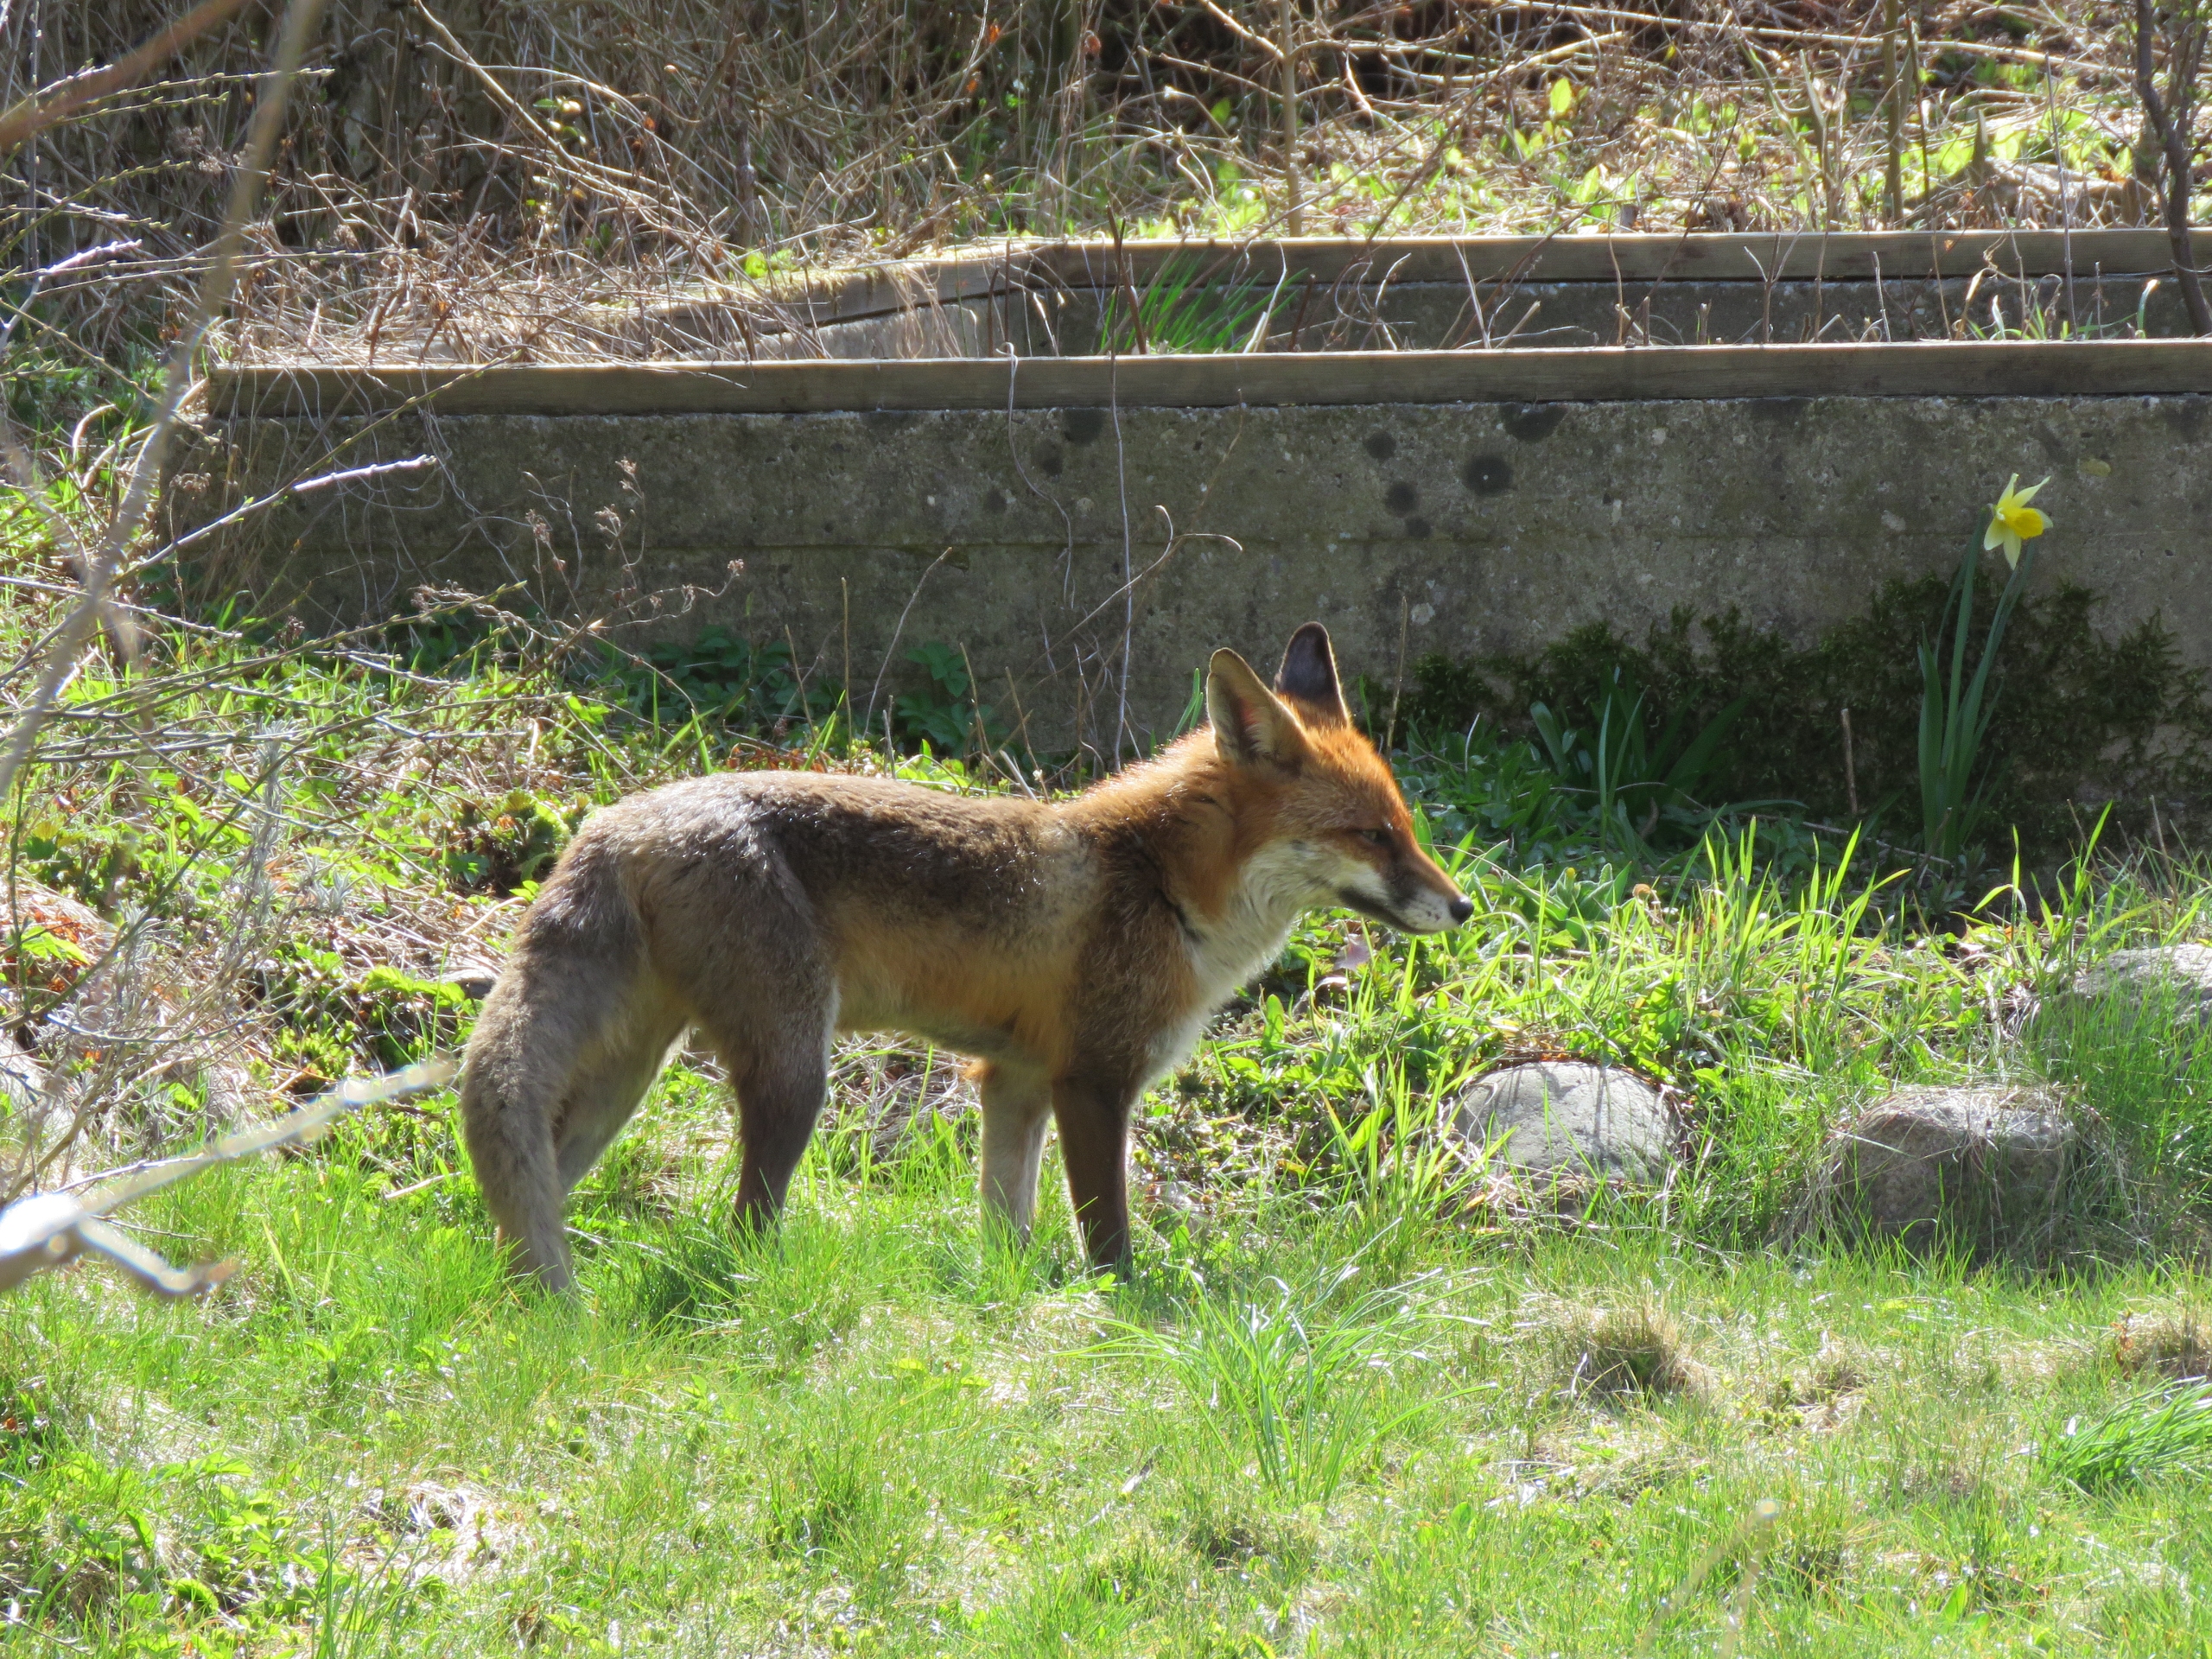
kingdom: Animalia
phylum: Chordata
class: Mammalia
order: Carnivora
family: Canidae
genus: Vulpes
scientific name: Vulpes vulpes
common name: Ræv
